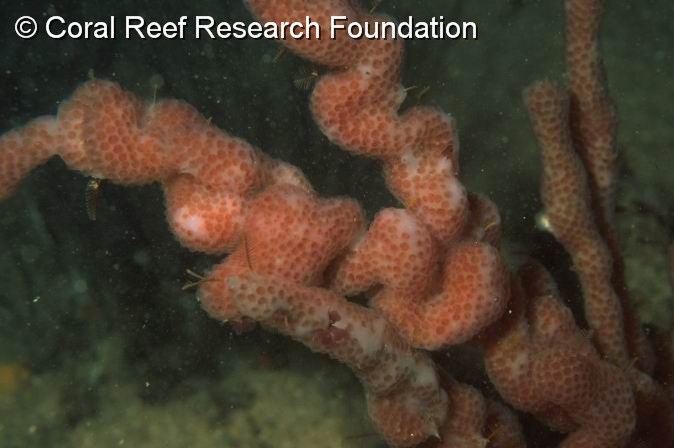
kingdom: Animalia
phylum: Chordata
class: Ascidiacea
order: Aplousobranchia
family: Polycitoridae
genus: Eudistoma
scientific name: Eudistoma illotum
